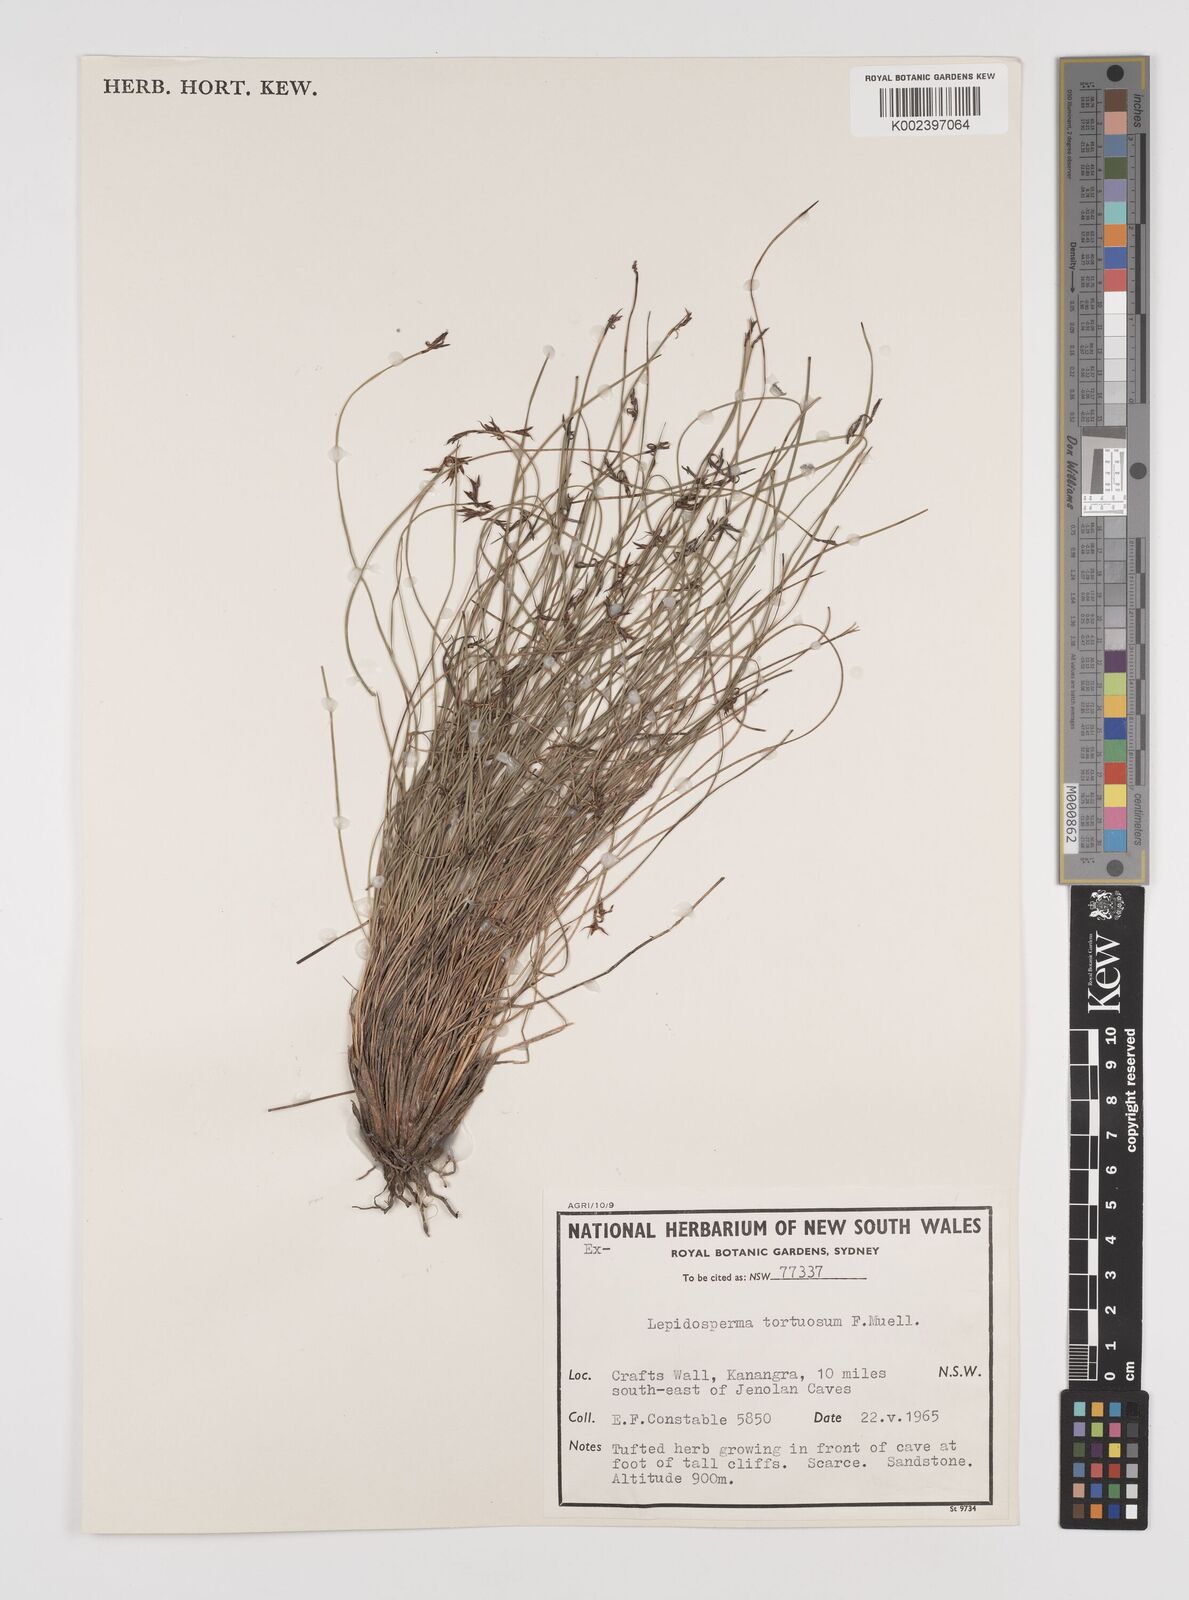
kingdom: Plantae
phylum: Tracheophyta
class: Liliopsida
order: Poales
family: Cyperaceae
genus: Lepidosperma
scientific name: Lepidosperma tortuosum
